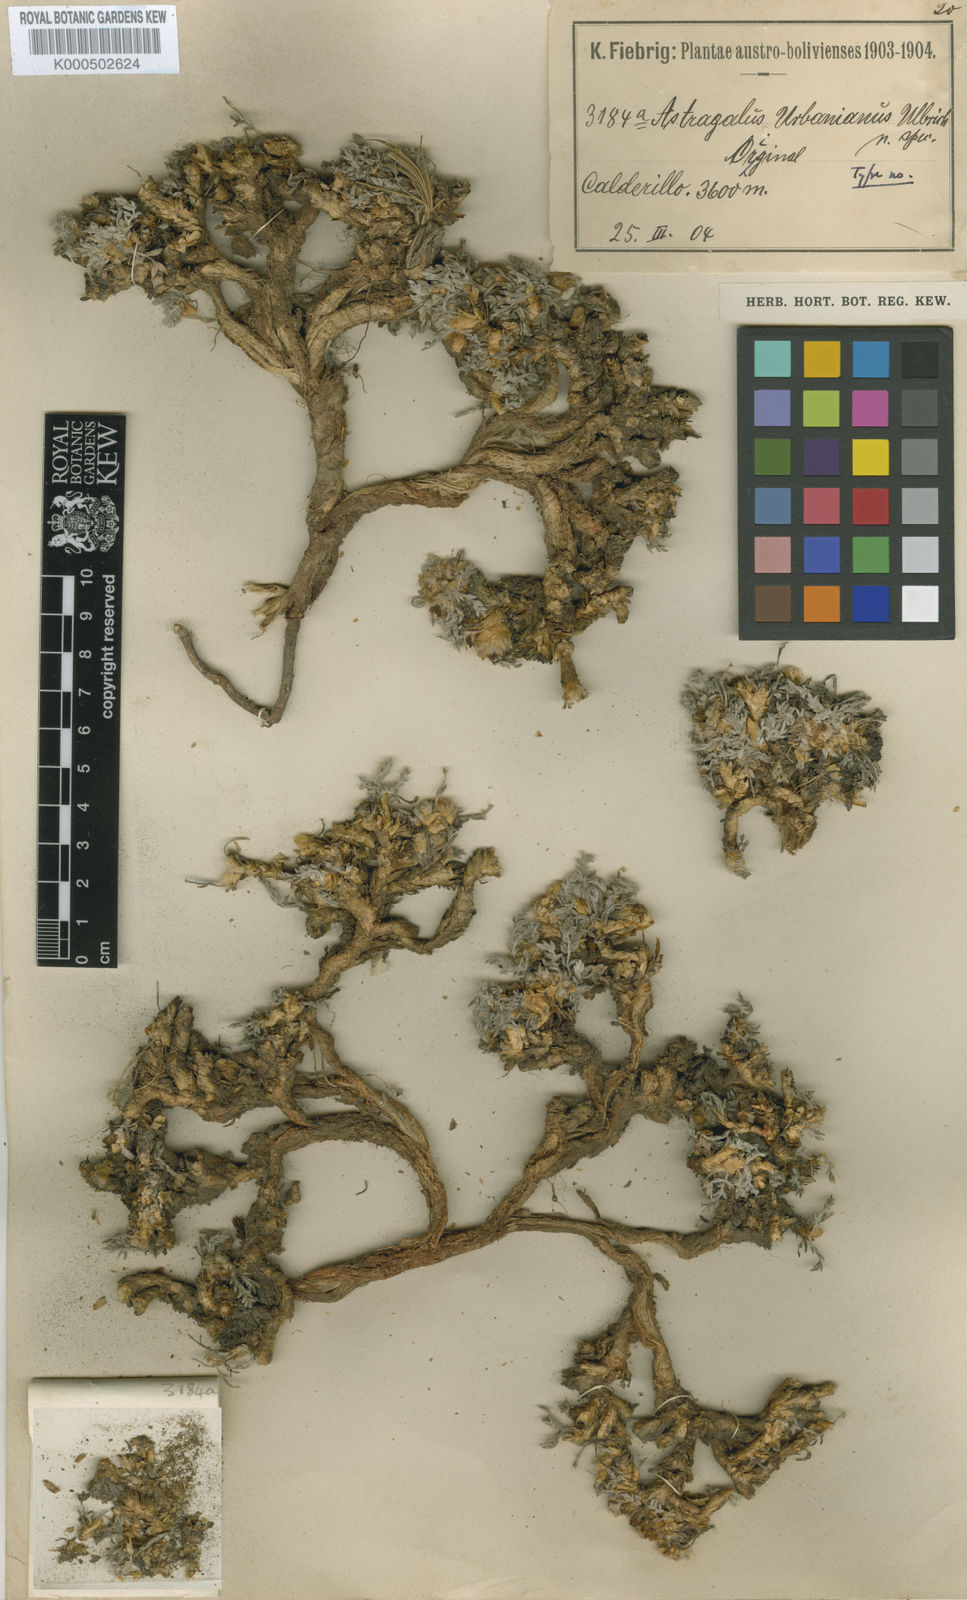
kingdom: Plantae
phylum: Tracheophyta
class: Magnoliopsida
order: Fabales
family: Fabaceae
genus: Astragalus
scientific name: Astragalus urbanianus
